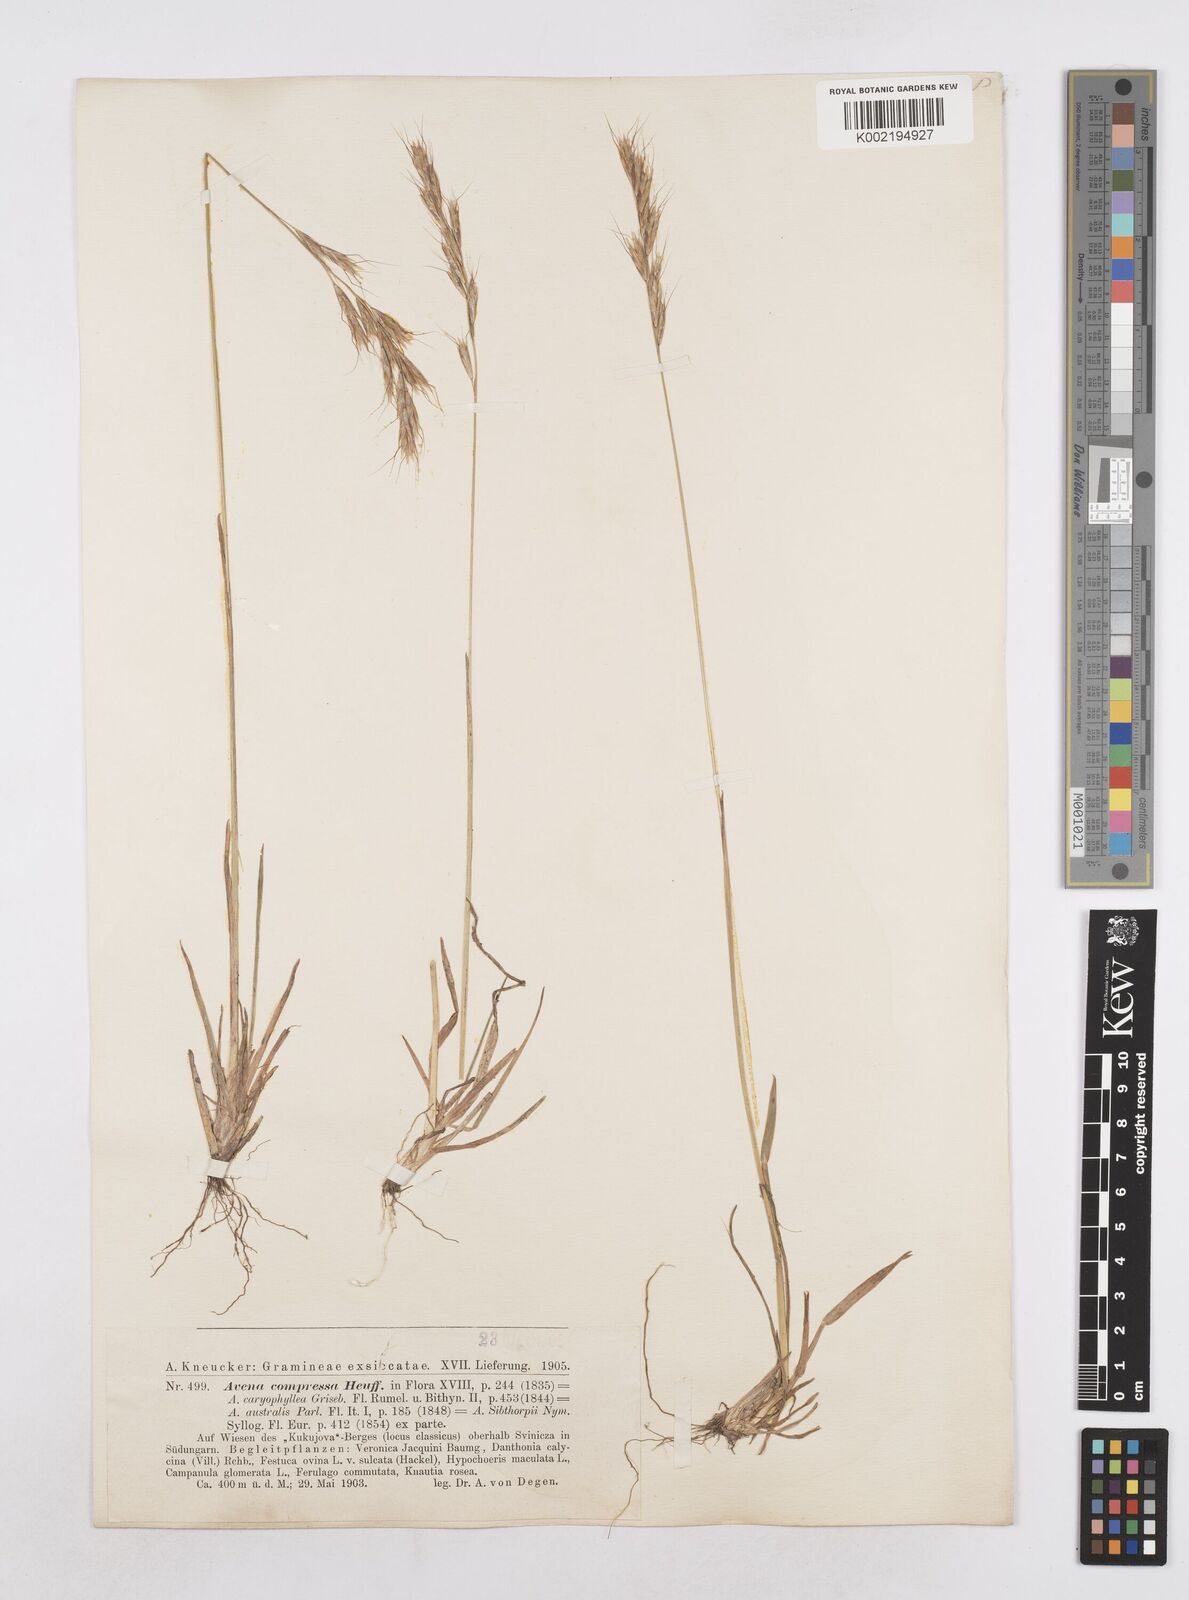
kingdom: Plantae
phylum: Tracheophyta
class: Liliopsida
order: Poales
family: Poaceae
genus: Helictochloa
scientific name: Helictochloa compressa
